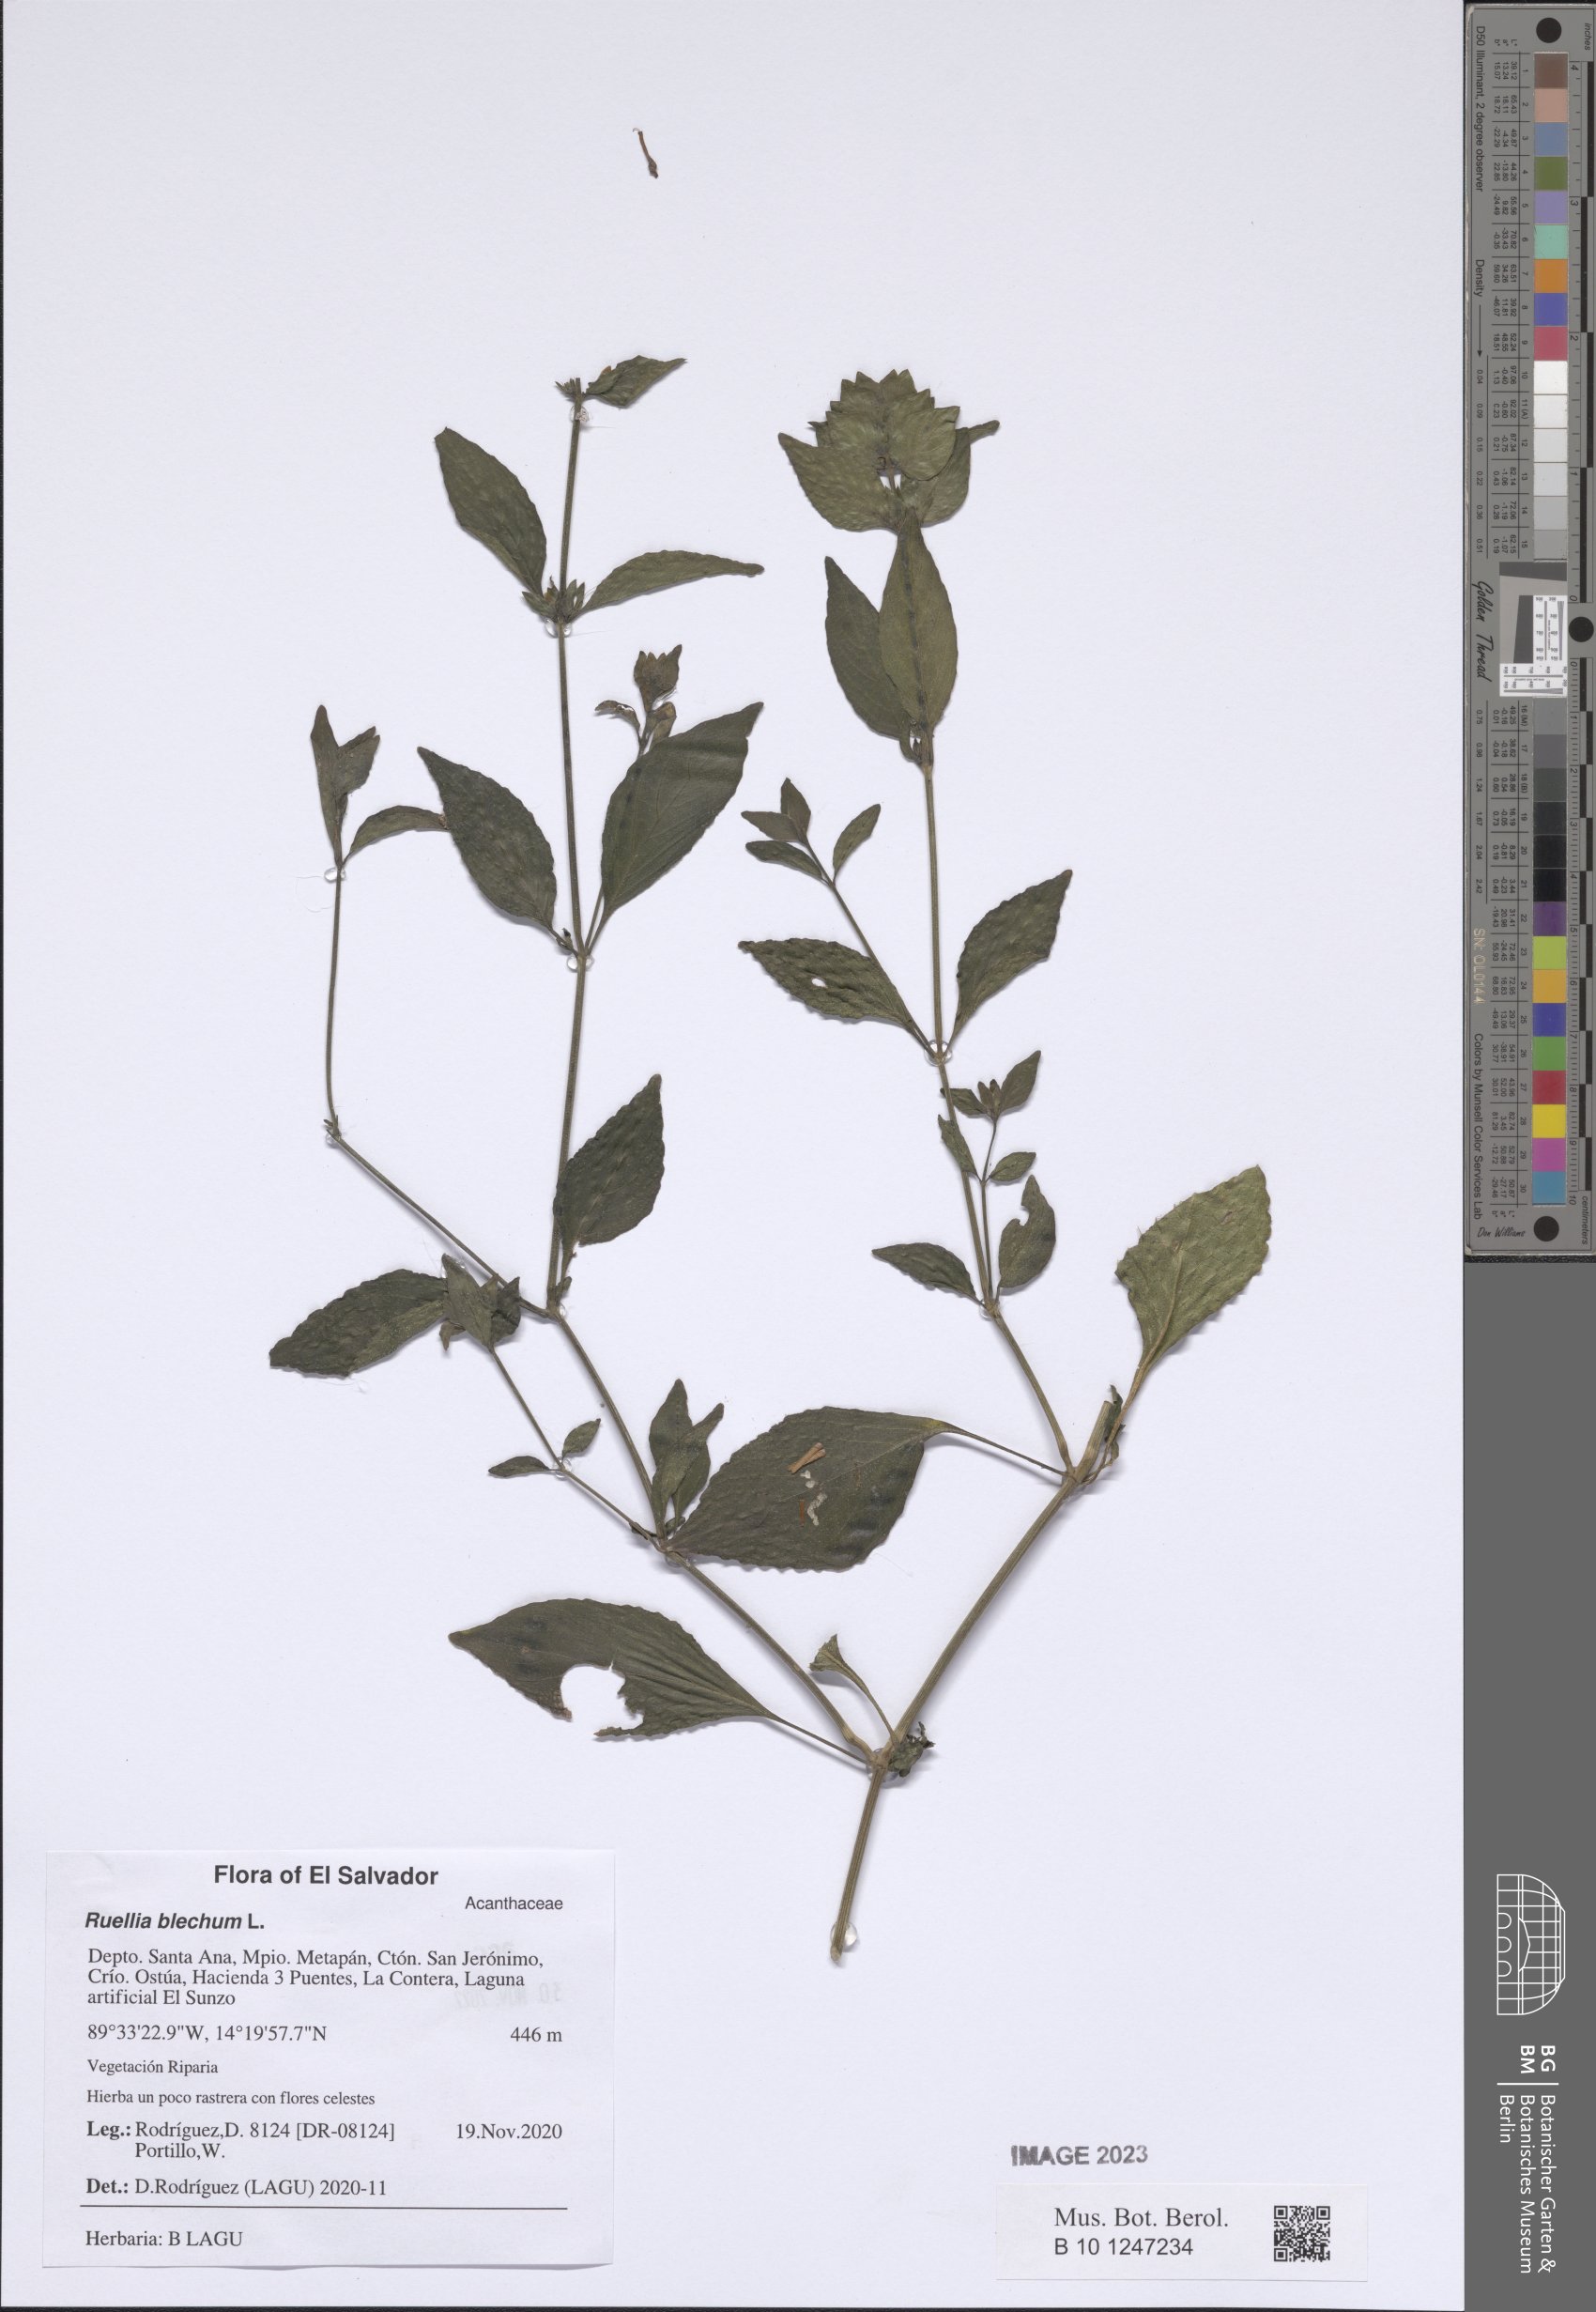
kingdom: Plantae
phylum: Tracheophyta
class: Magnoliopsida
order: Lamiales
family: Acanthaceae
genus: Ruellia
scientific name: Ruellia blechum
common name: Browne's blechum
